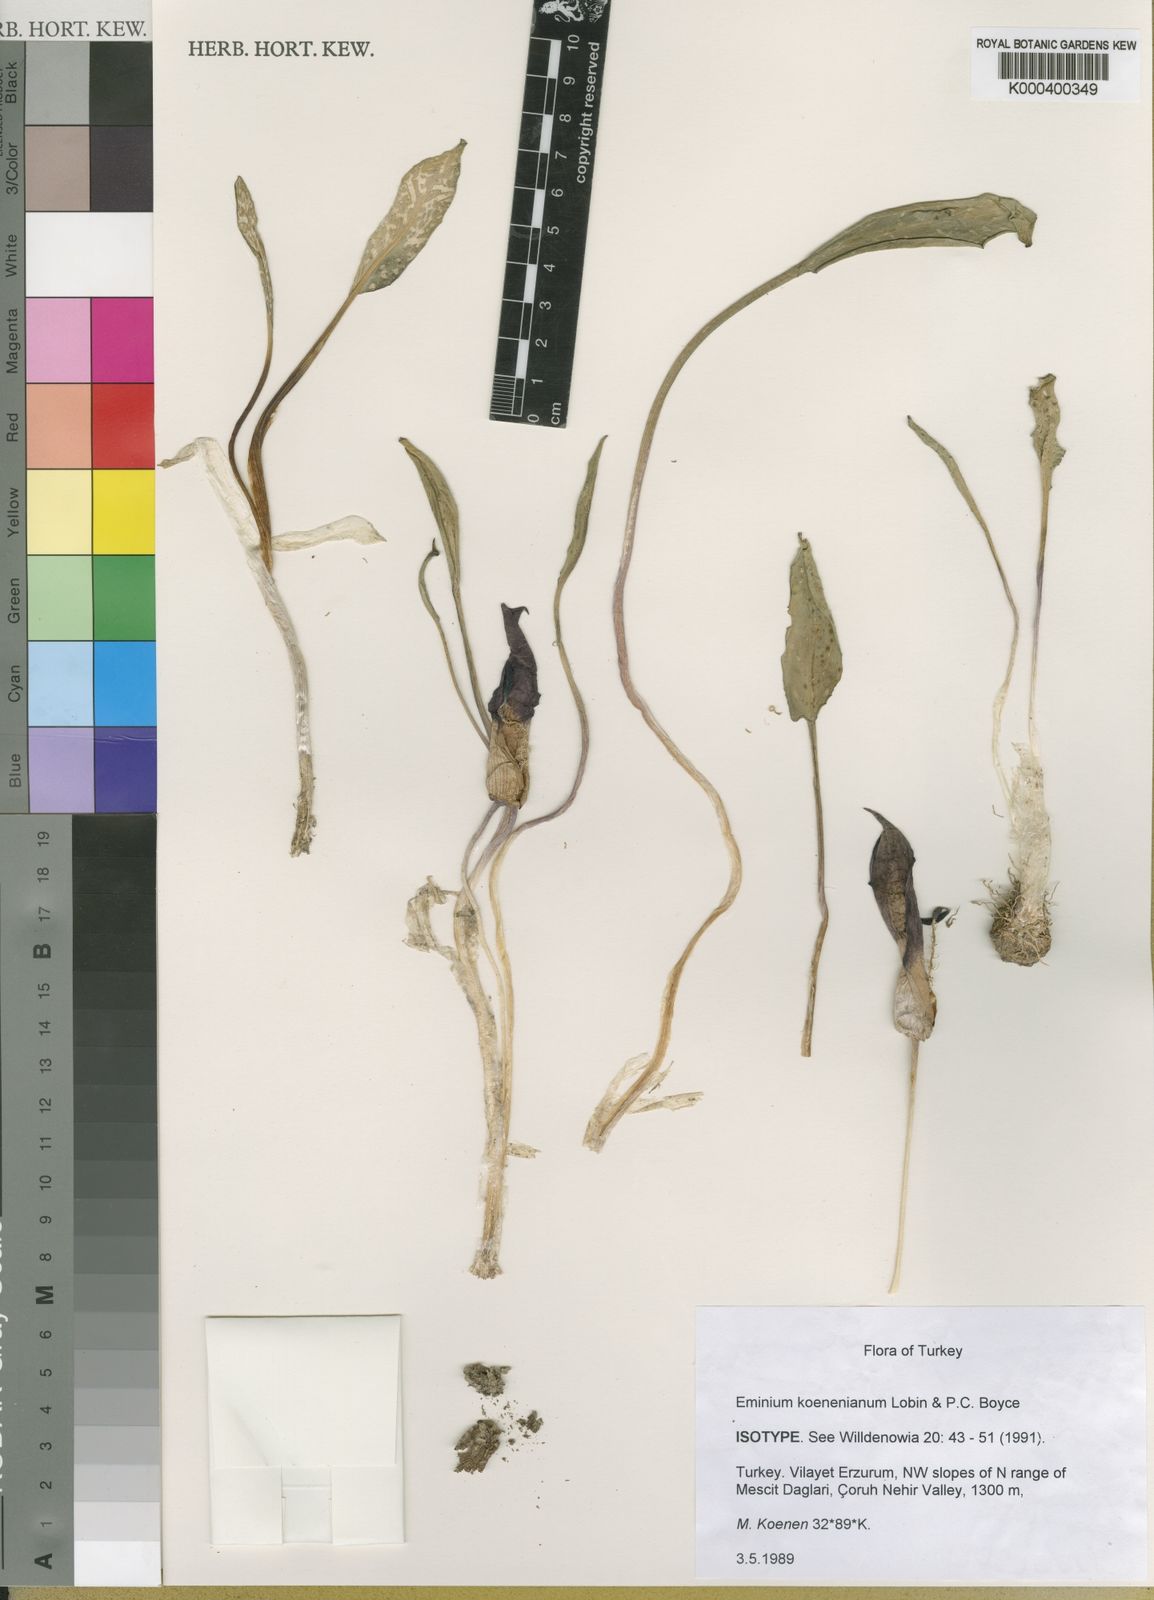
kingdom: Plantae
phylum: Tracheophyta
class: Liliopsida
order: Alismatales
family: Araceae
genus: Eminium
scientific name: Eminium koenenianum
